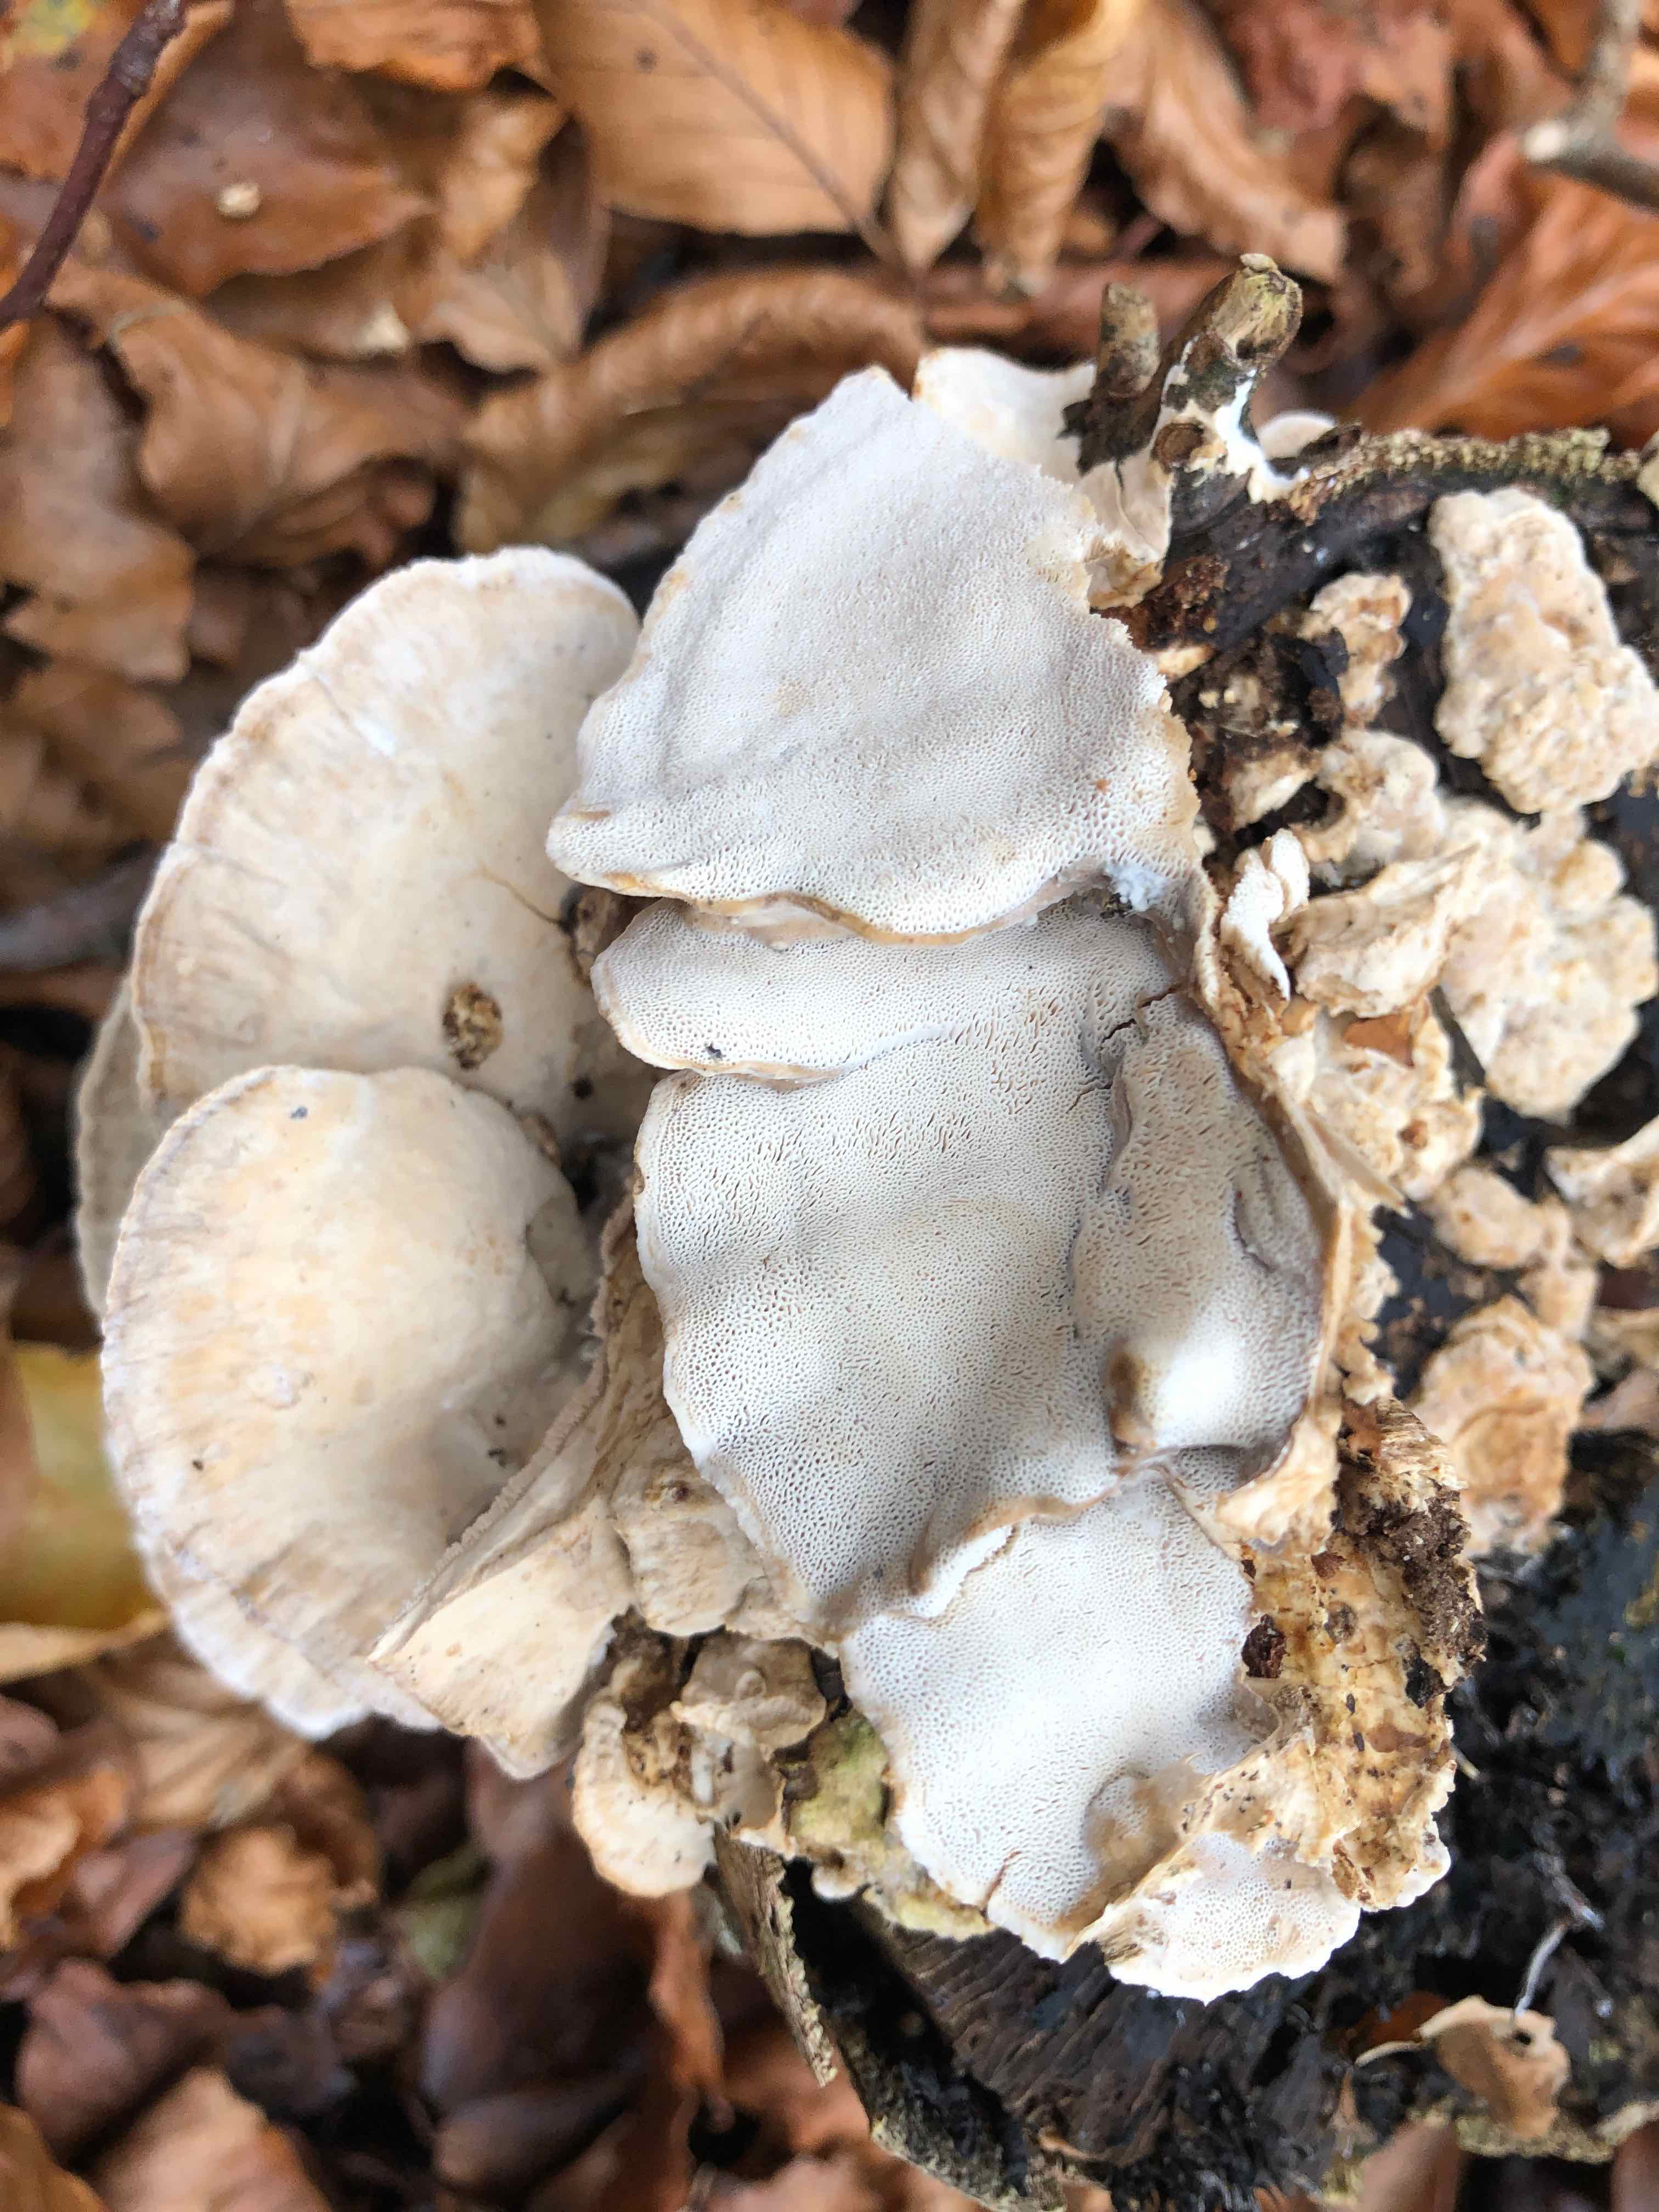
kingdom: Fungi
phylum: Basidiomycota
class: Agaricomycetes
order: Polyporales
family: Phanerochaetaceae
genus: Bjerkandera
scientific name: Bjerkandera fumosa
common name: grågul sodporesvamp
